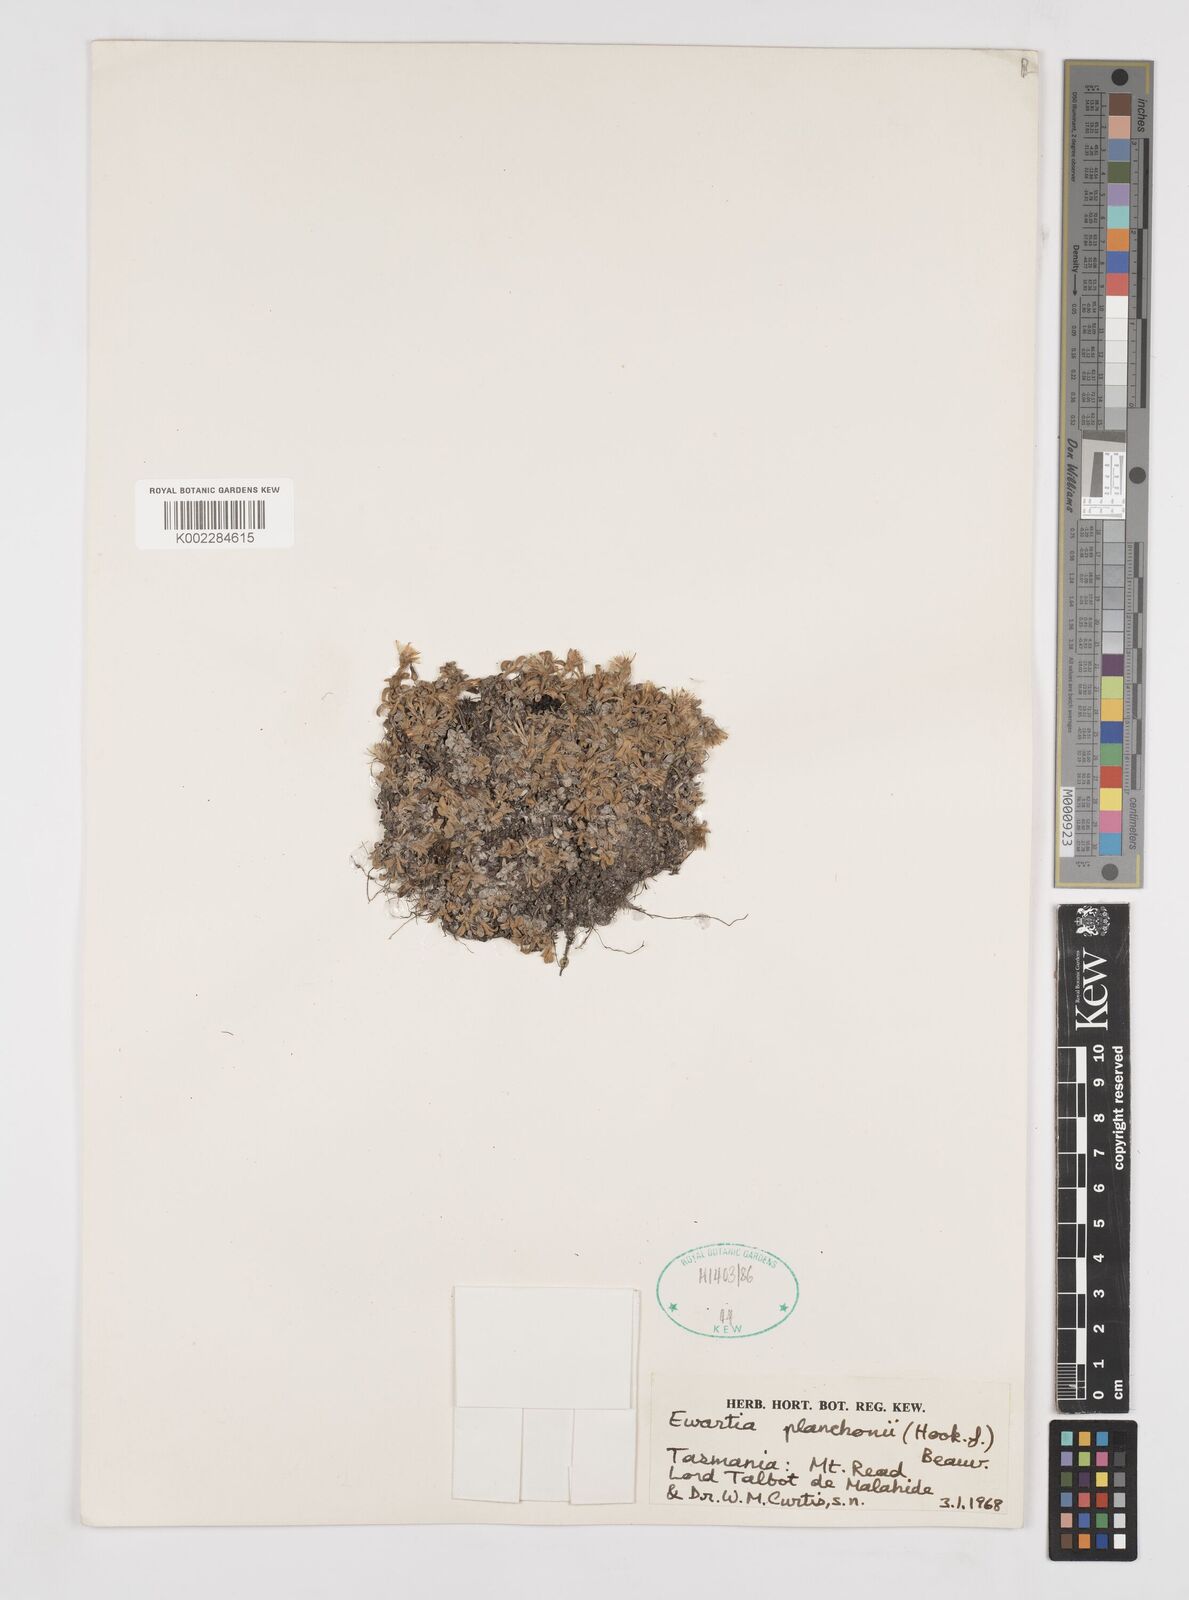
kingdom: Plantae
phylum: Tracheophyta
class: Magnoliopsida
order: Asterales
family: Asteraceae
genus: Ewartia
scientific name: Ewartia planchonii
